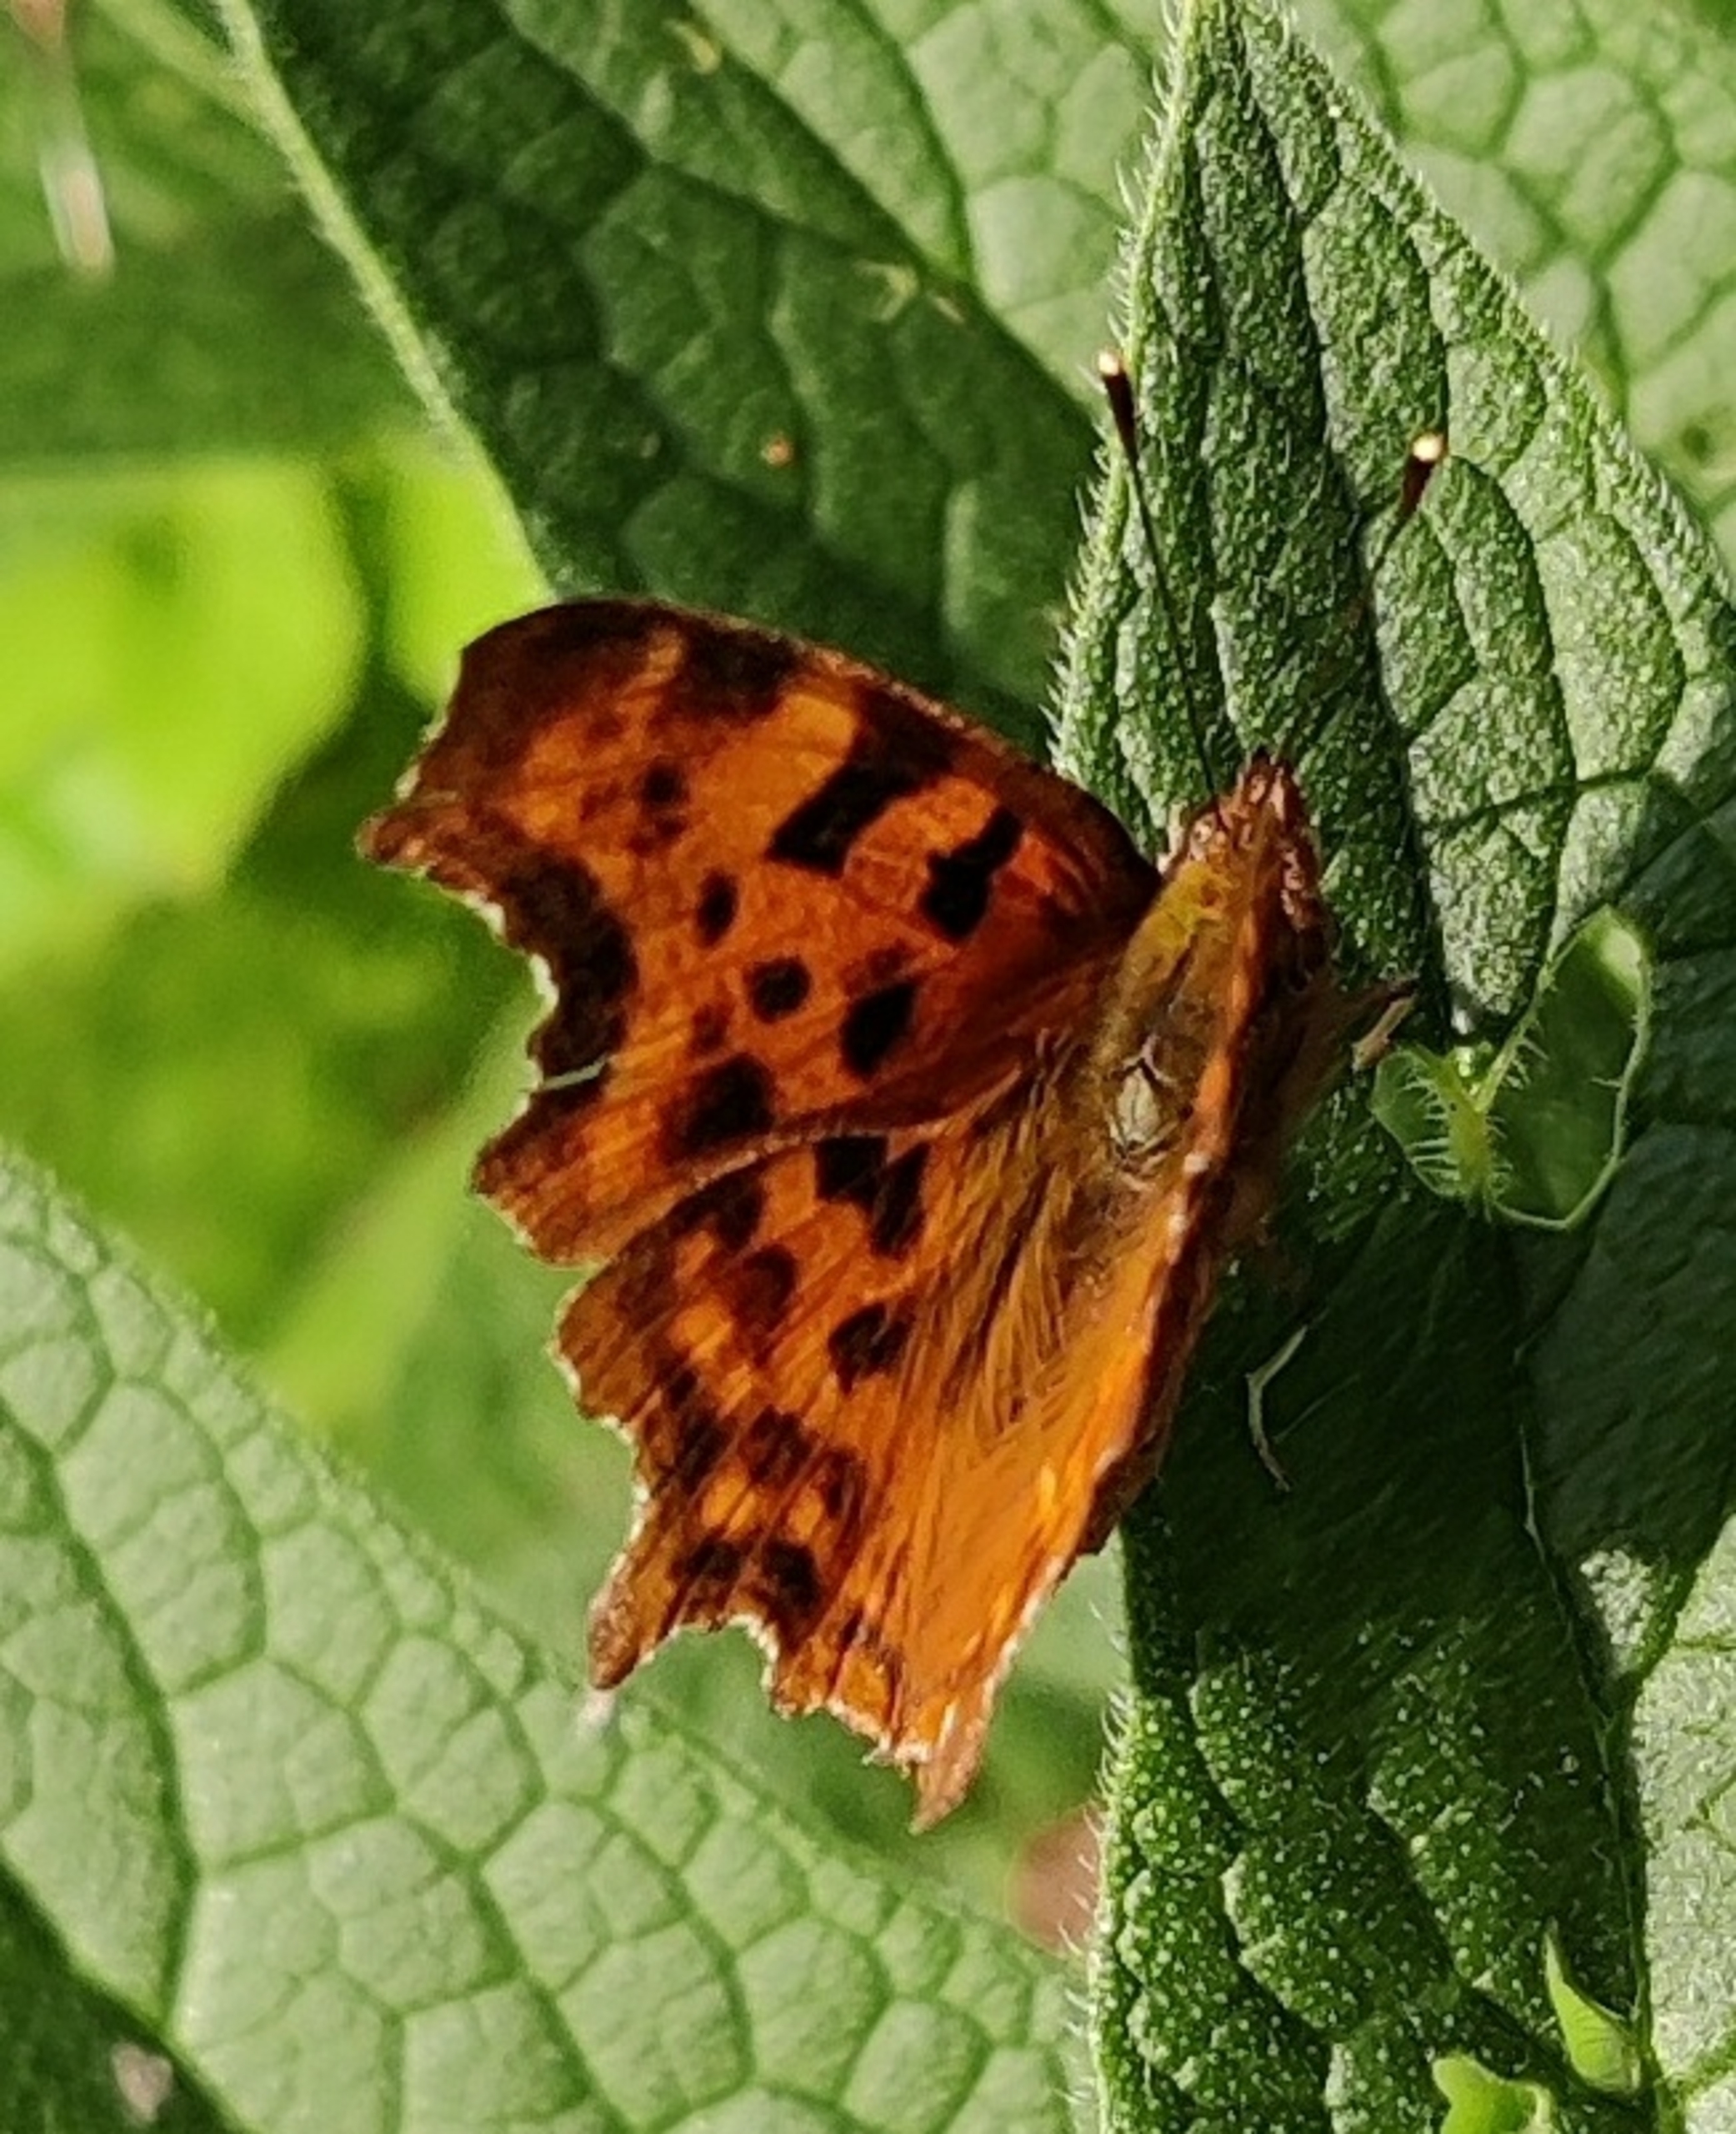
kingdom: Animalia
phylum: Arthropoda
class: Insecta
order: Lepidoptera
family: Nymphalidae
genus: Polygonia
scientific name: Polygonia c-album
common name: Det hvide C
